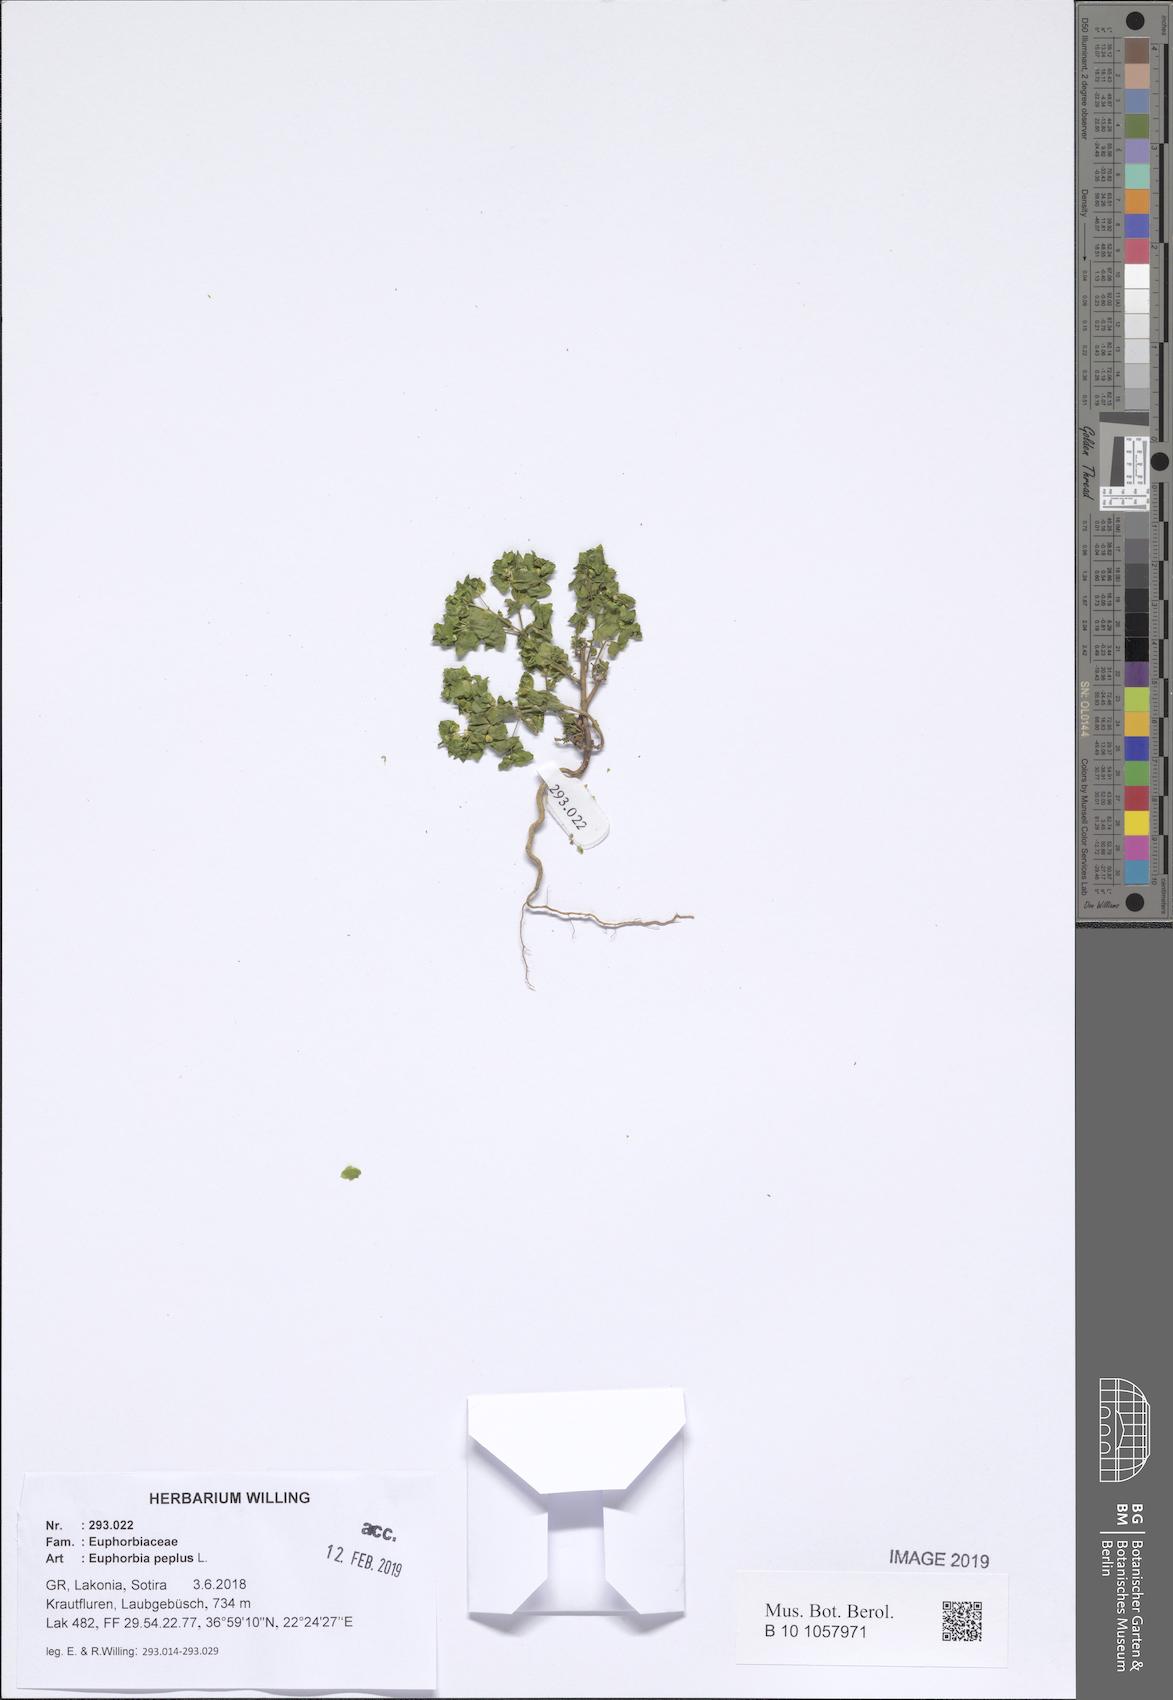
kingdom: Plantae
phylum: Tracheophyta
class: Magnoliopsida
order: Malpighiales
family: Euphorbiaceae
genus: Euphorbia
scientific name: Euphorbia peplus
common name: Petty spurge
